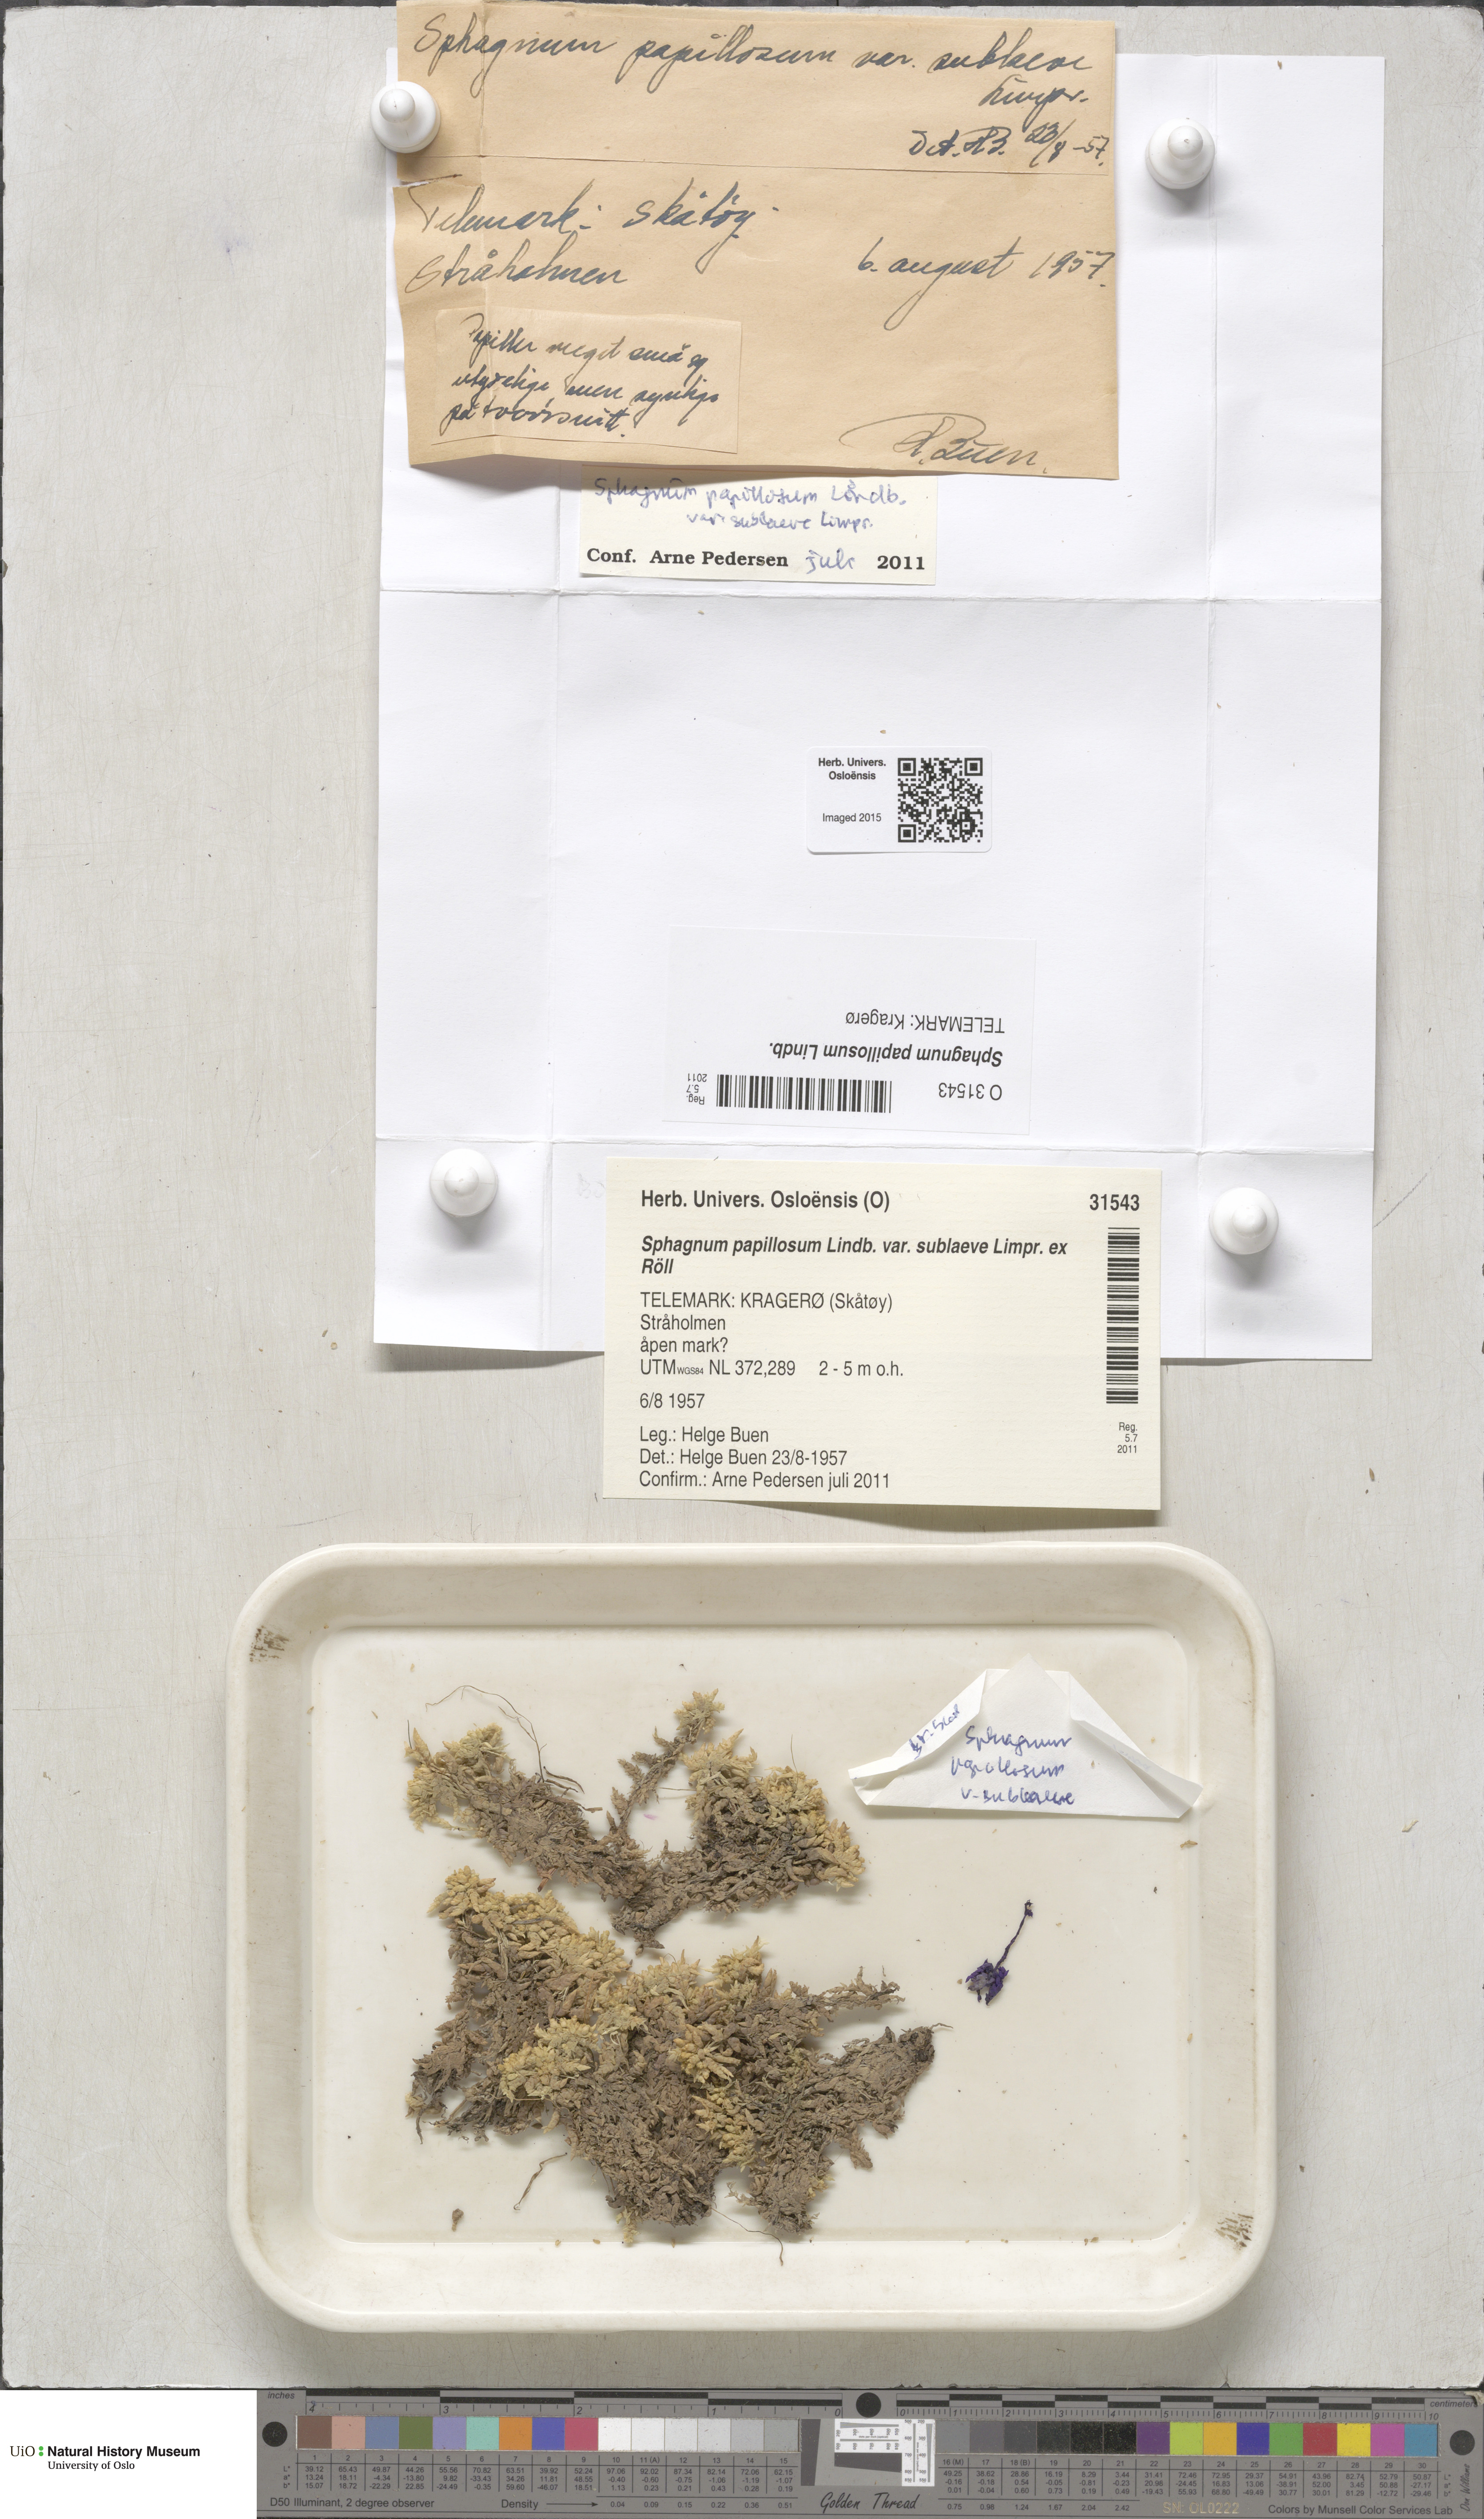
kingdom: Plantae
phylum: Bryophyta
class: Sphagnopsida
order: Sphagnales
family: Sphagnaceae
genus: Sphagnum
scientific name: Sphagnum papillosum
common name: Papillose peat moss
